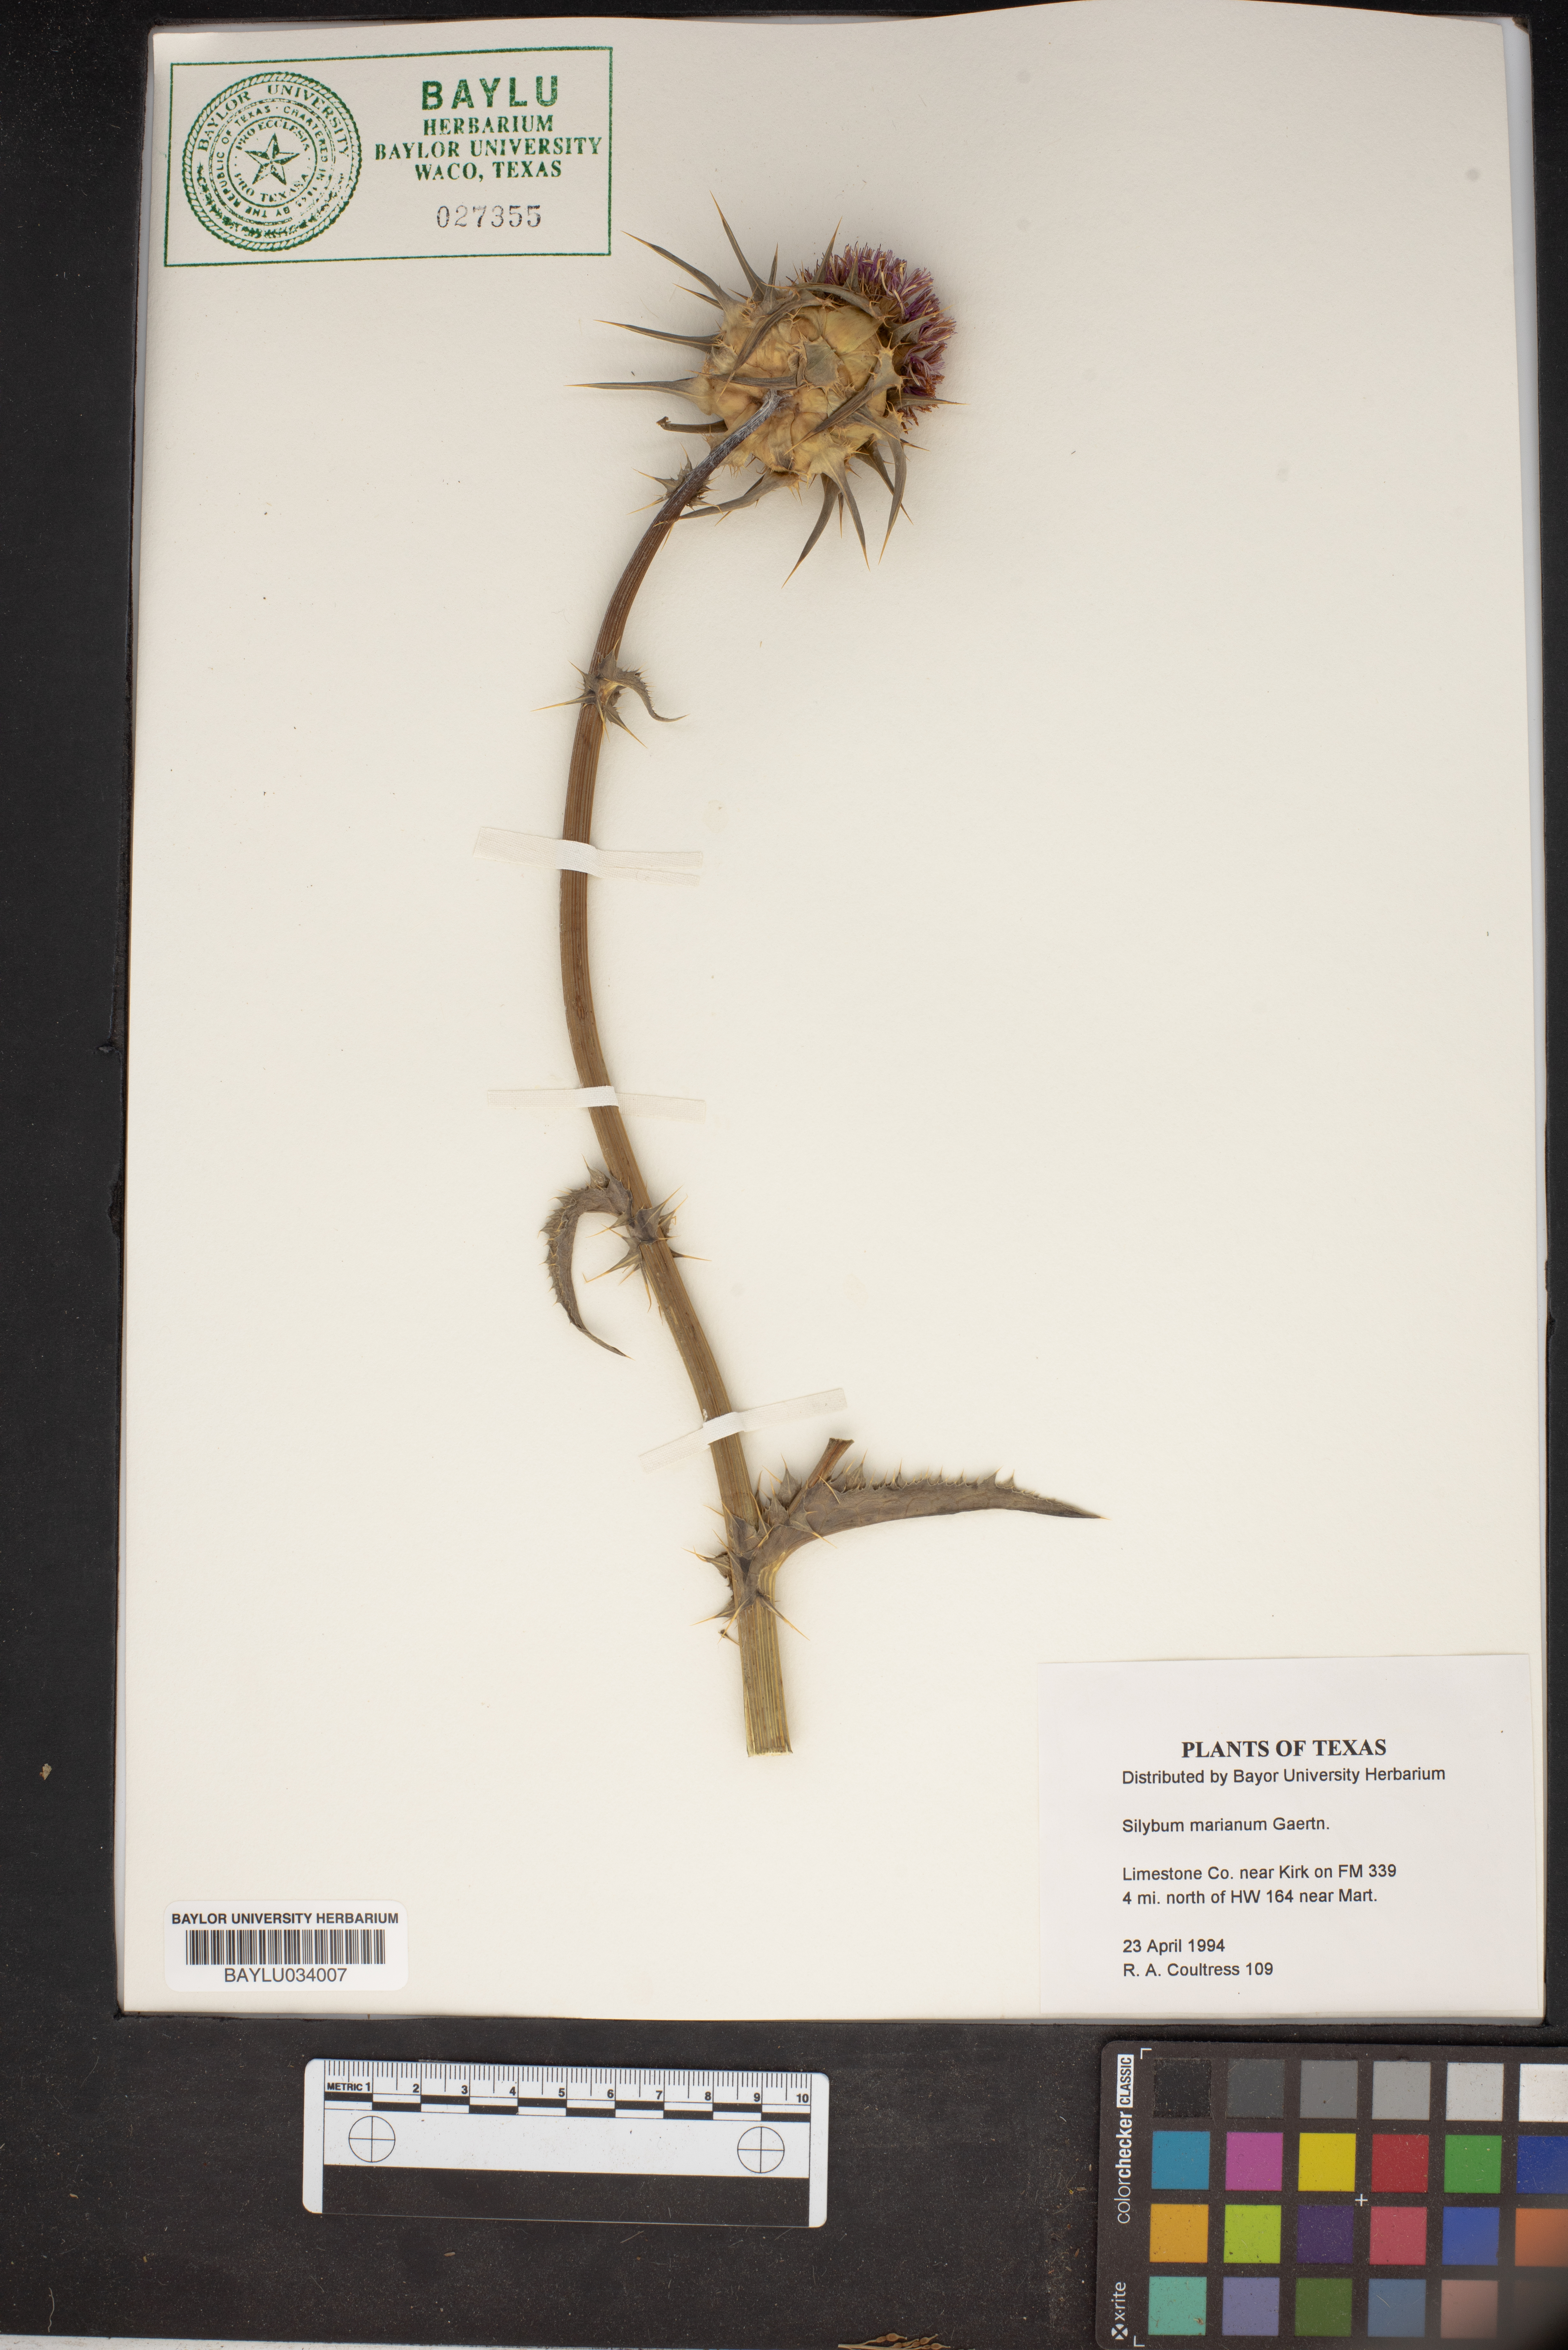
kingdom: Plantae
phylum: Tracheophyta
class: Magnoliopsida
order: Asterales
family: Asteraceae
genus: Silybum
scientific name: Silybum marianum
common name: Milk thistle
